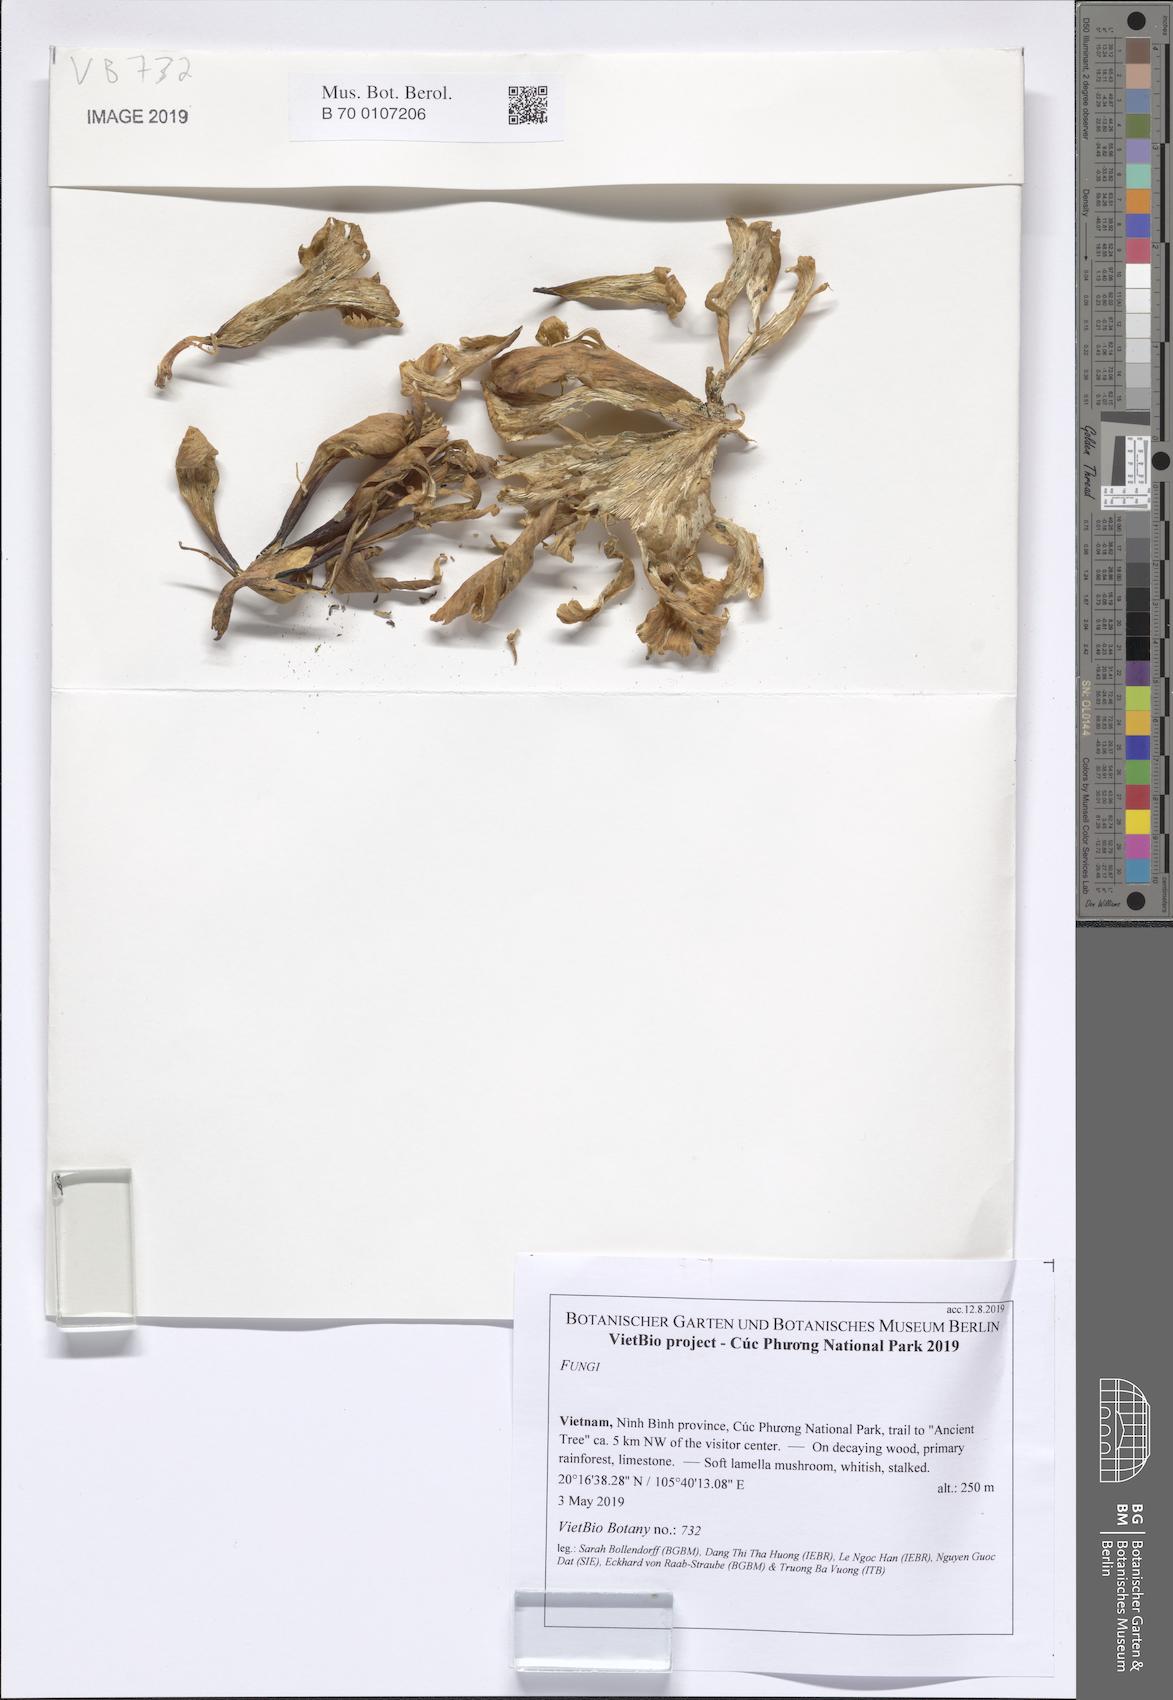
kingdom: Fungi
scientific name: Fungi
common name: Fungi
